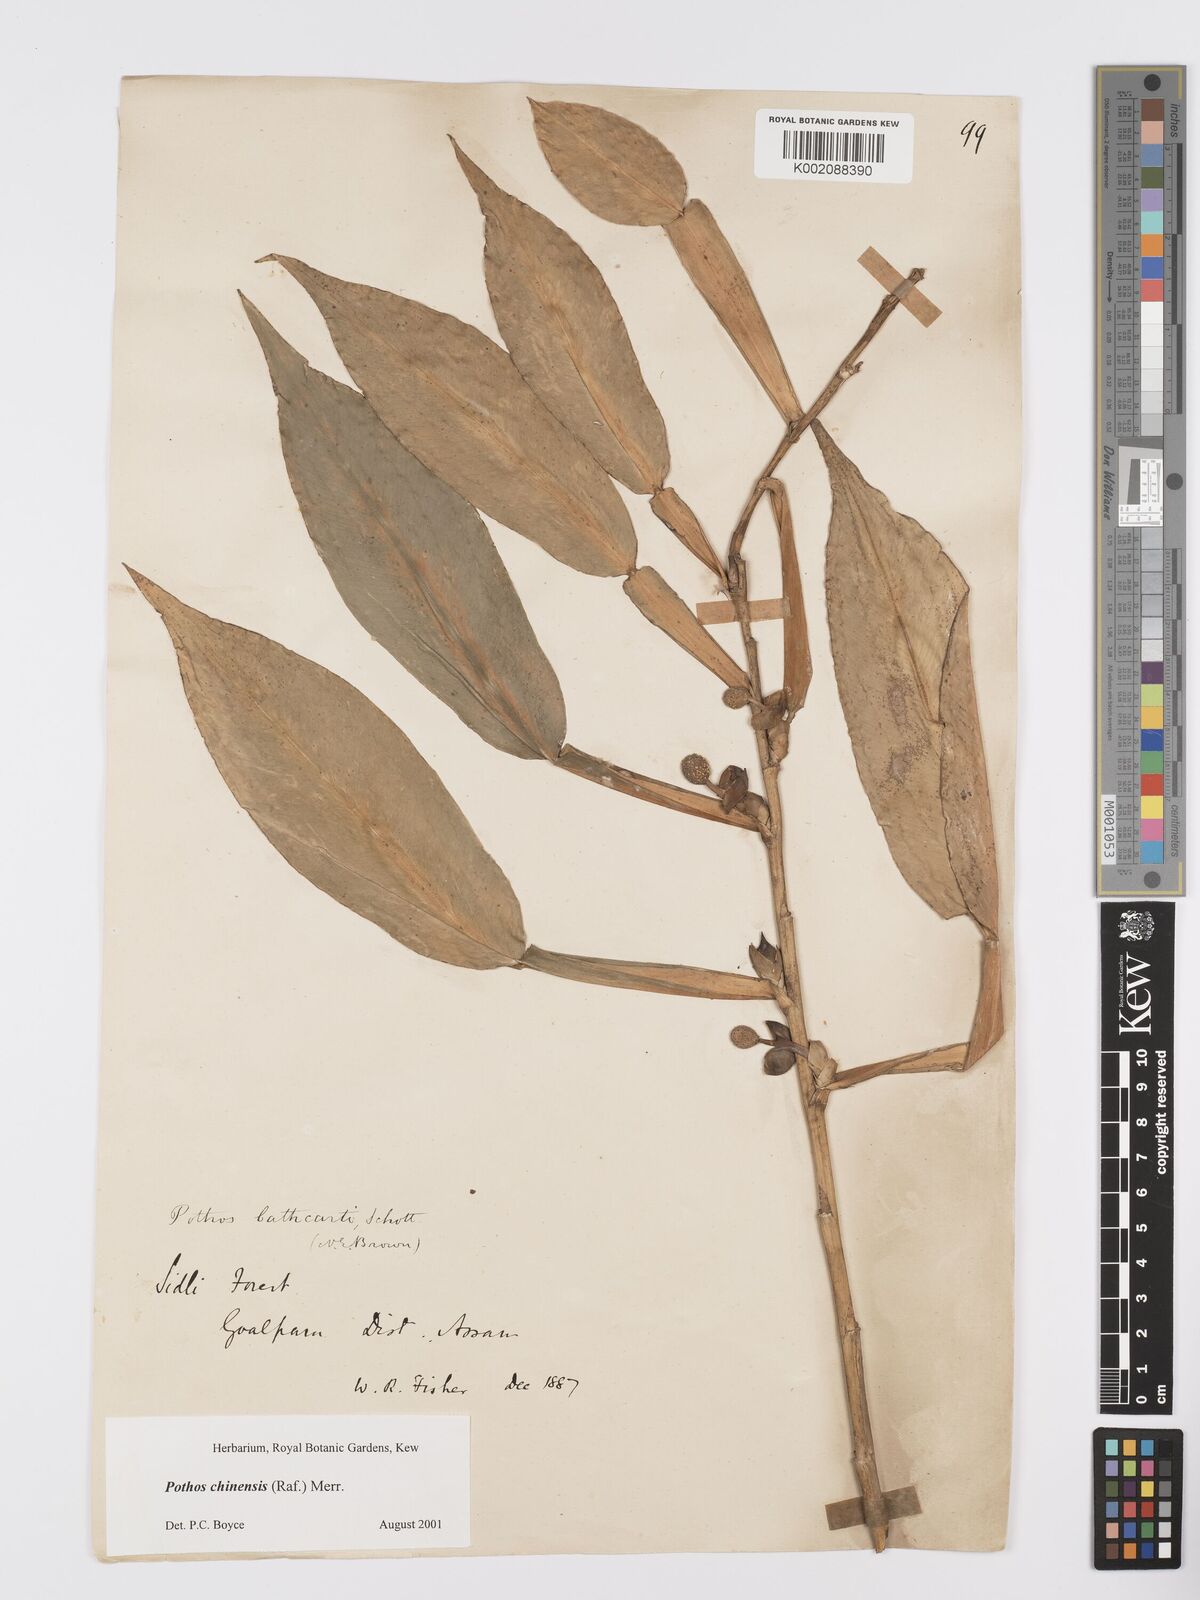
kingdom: Plantae
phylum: Tracheophyta
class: Liliopsida
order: Alismatales
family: Araceae
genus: Pothos
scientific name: Pothos chinensis
